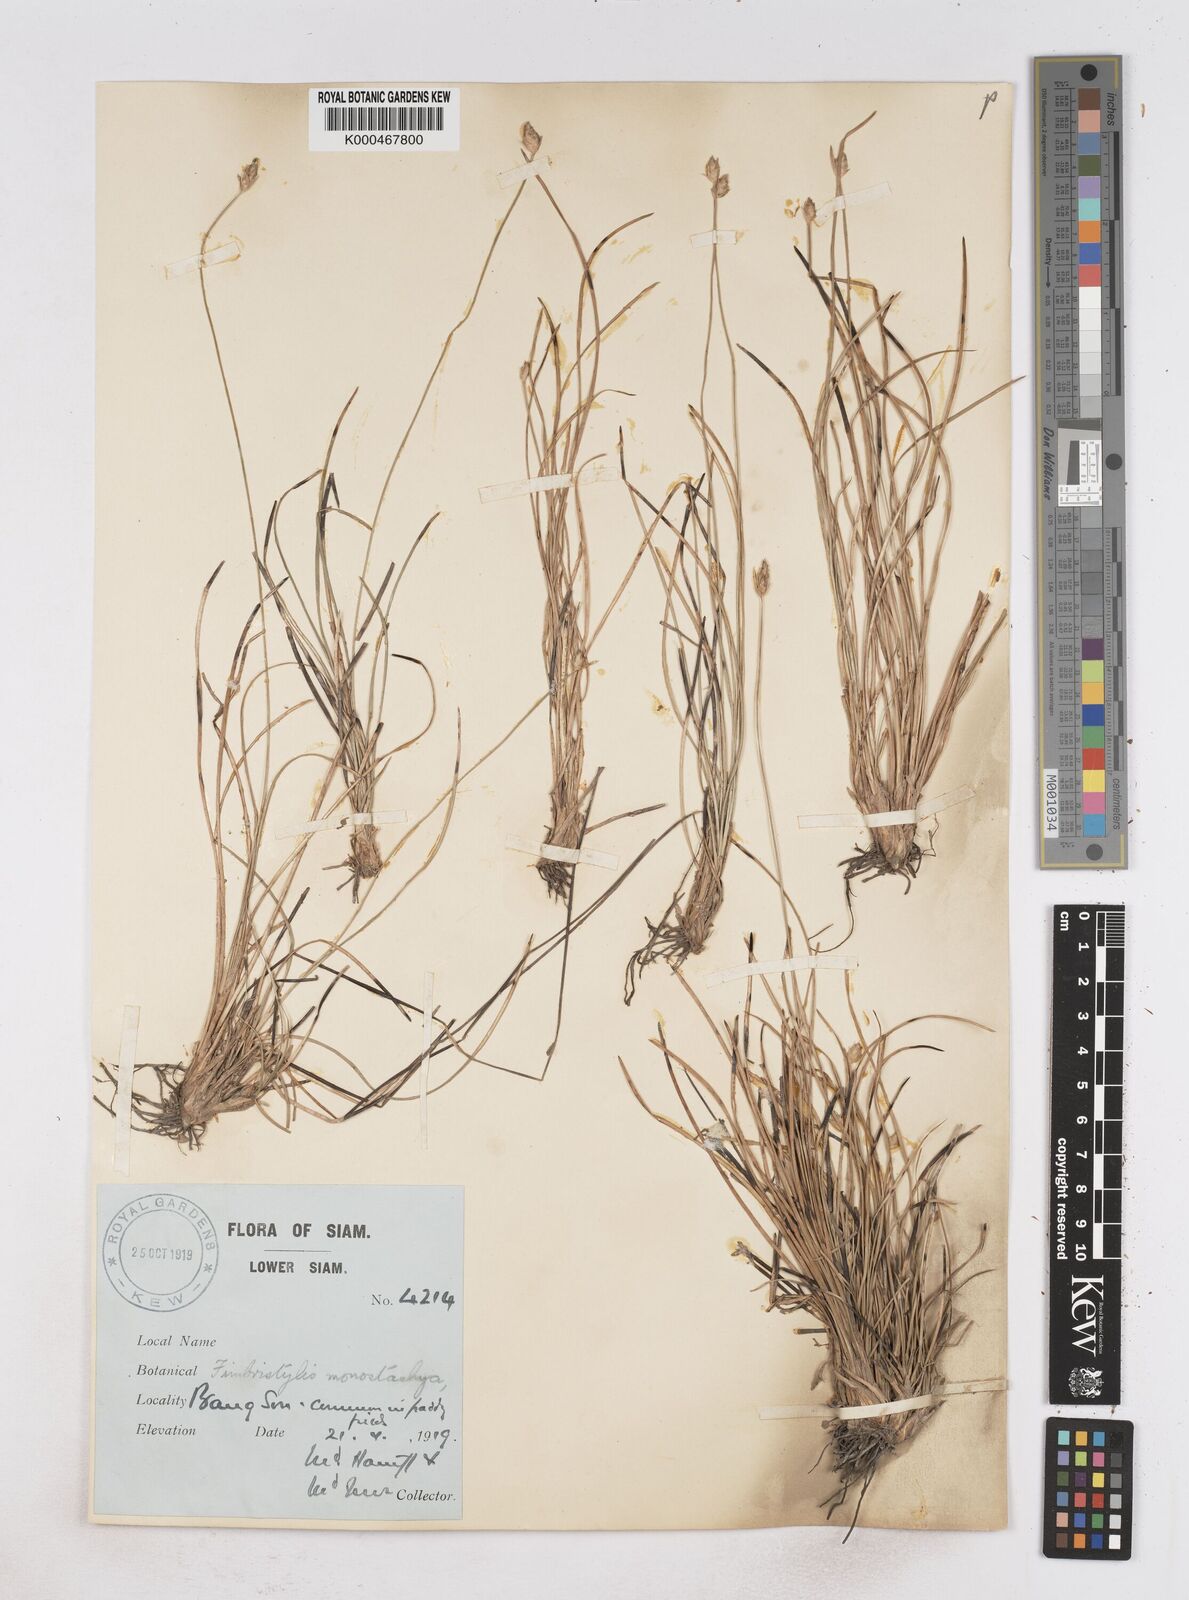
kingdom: Plantae
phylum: Tracheophyta
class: Liliopsida
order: Poales
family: Cyperaceae
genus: Abildgaardia
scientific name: Abildgaardia ovata
